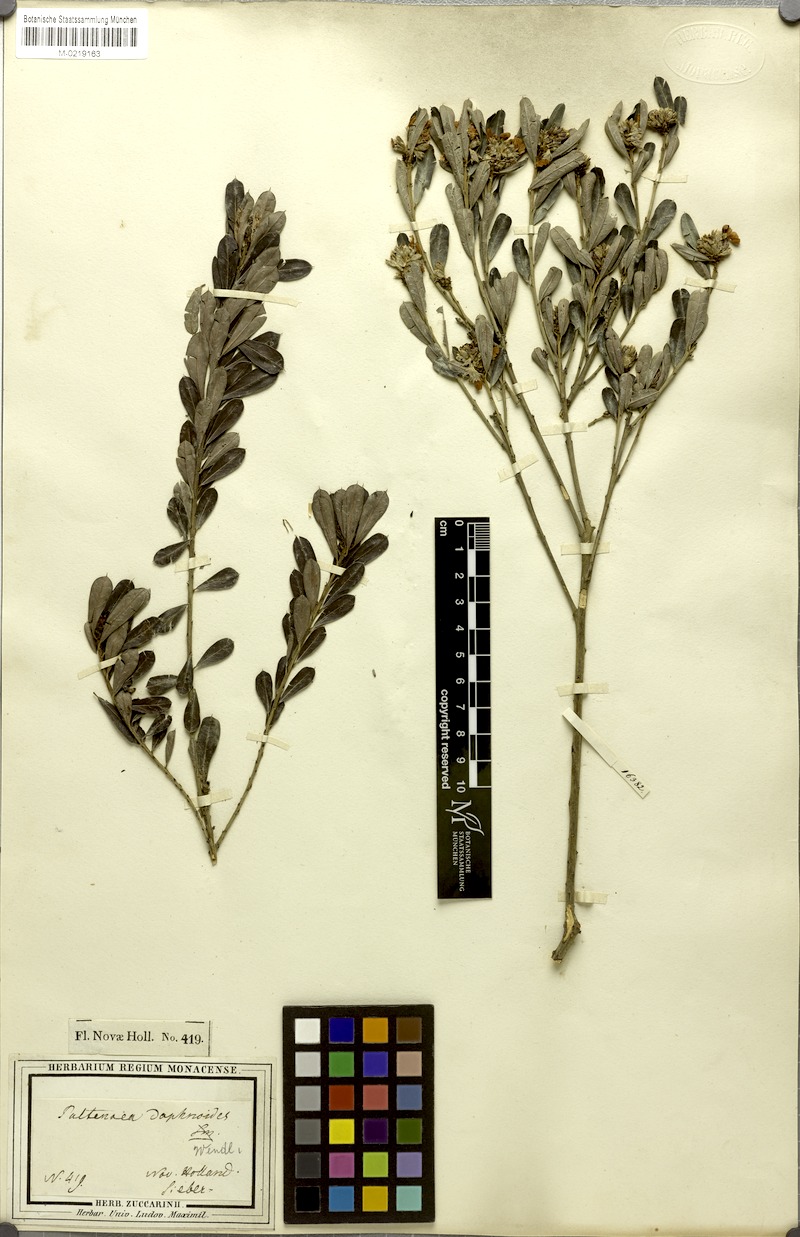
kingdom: Plantae
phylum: Tracheophyta
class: Magnoliopsida
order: Fabales
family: Fabaceae
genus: Pultenaea
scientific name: Pultenaea daphnoides
